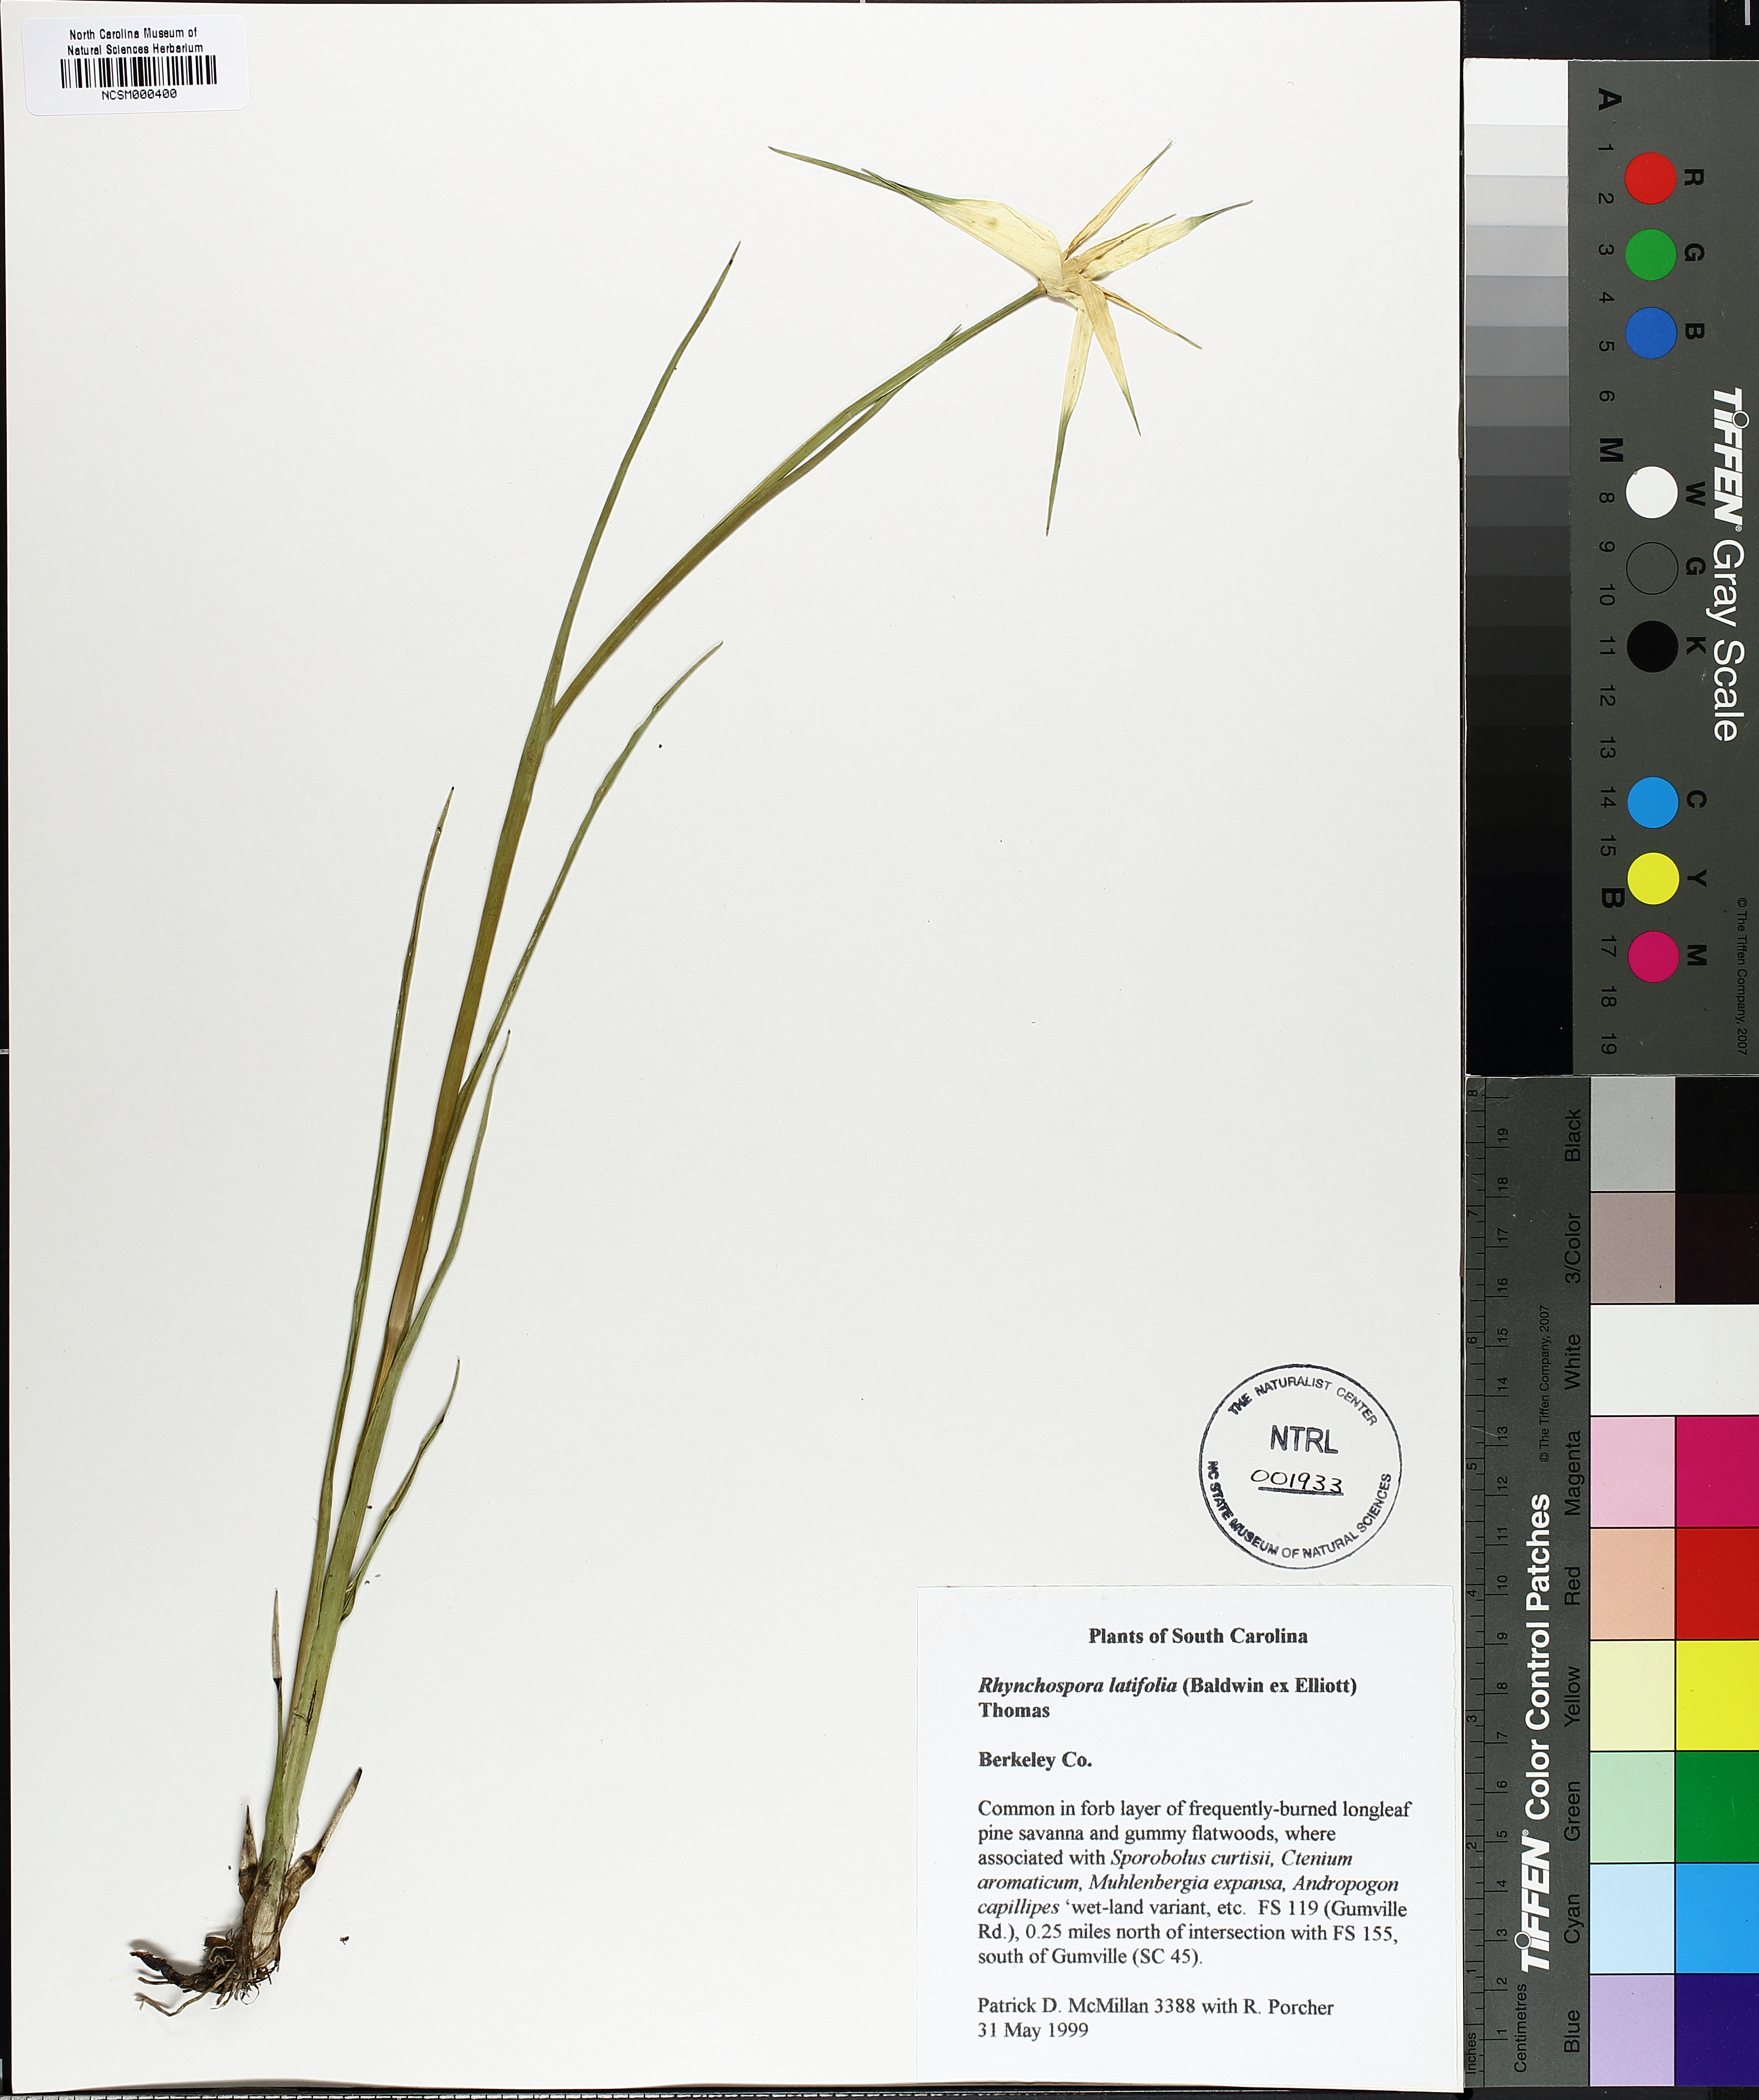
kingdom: Plantae
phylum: Tracheophyta
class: Liliopsida
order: Poales
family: Cyperaceae
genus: Rhynchospora
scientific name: Rhynchospora latifolia
